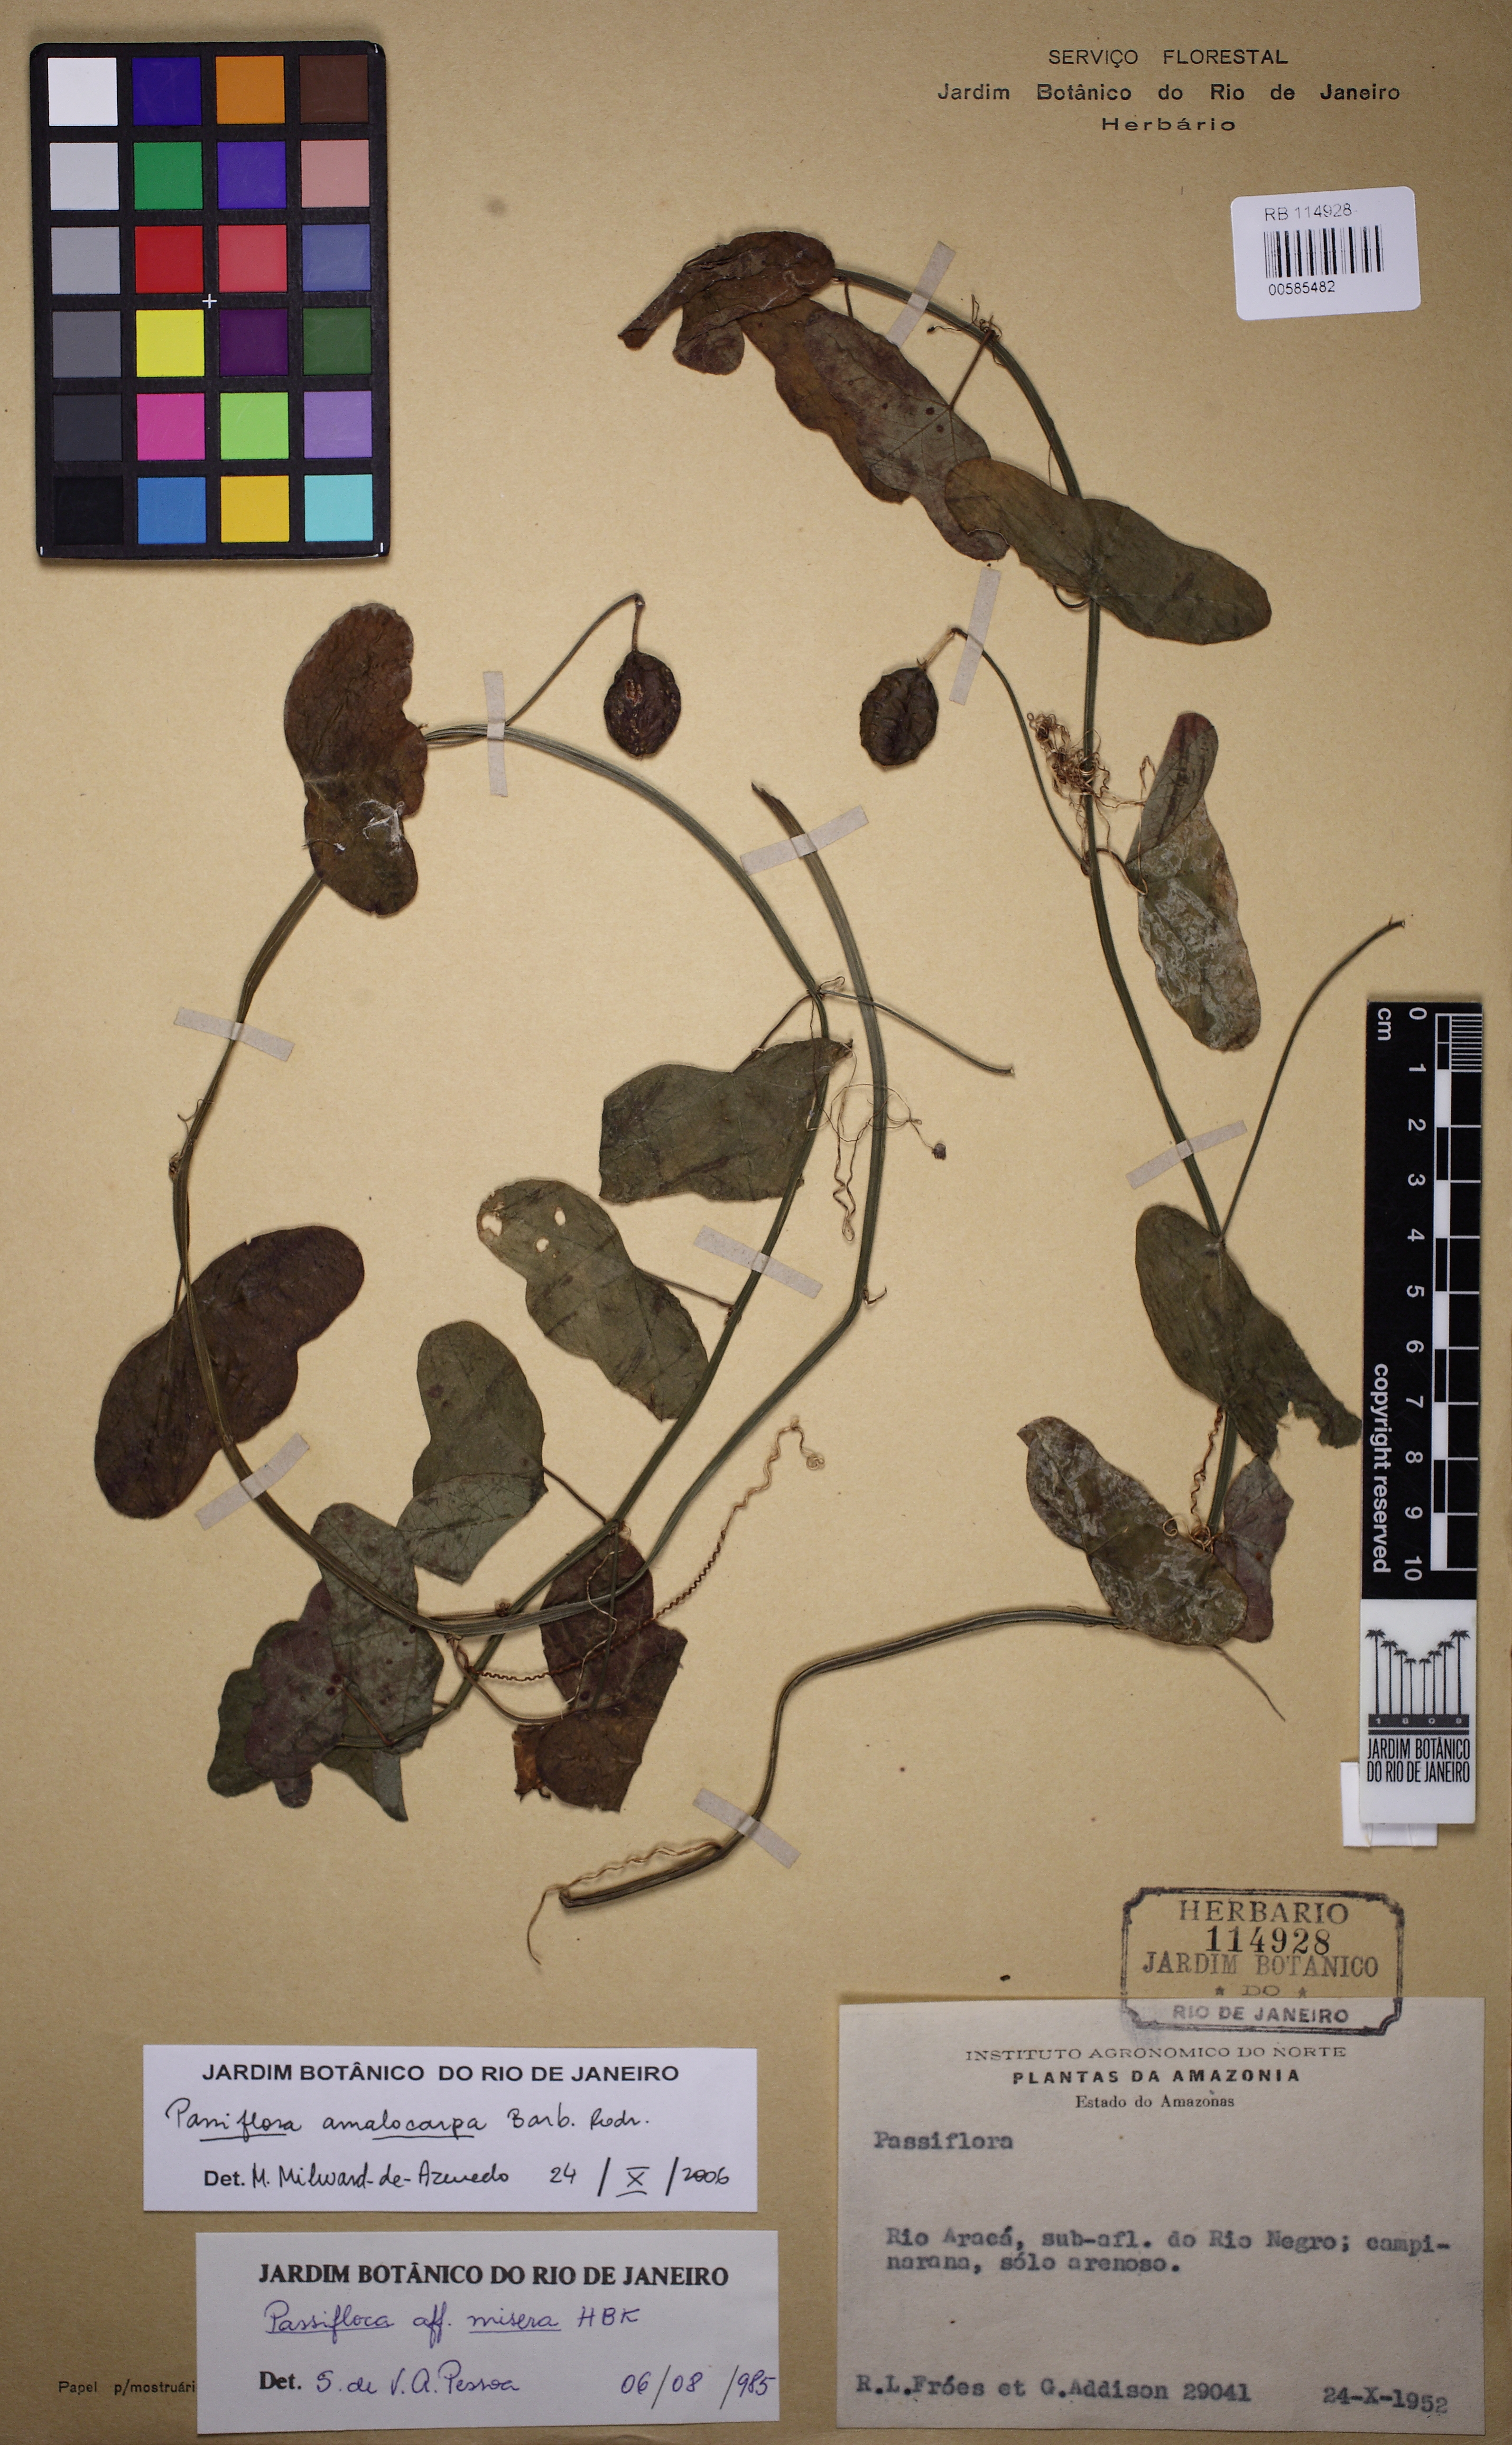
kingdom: Plantae
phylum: Tracheophyta
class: Magnoliopsida
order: Malpighiales
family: Passifloraceae
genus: Passiflora
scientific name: Passiflora amalocarpa
